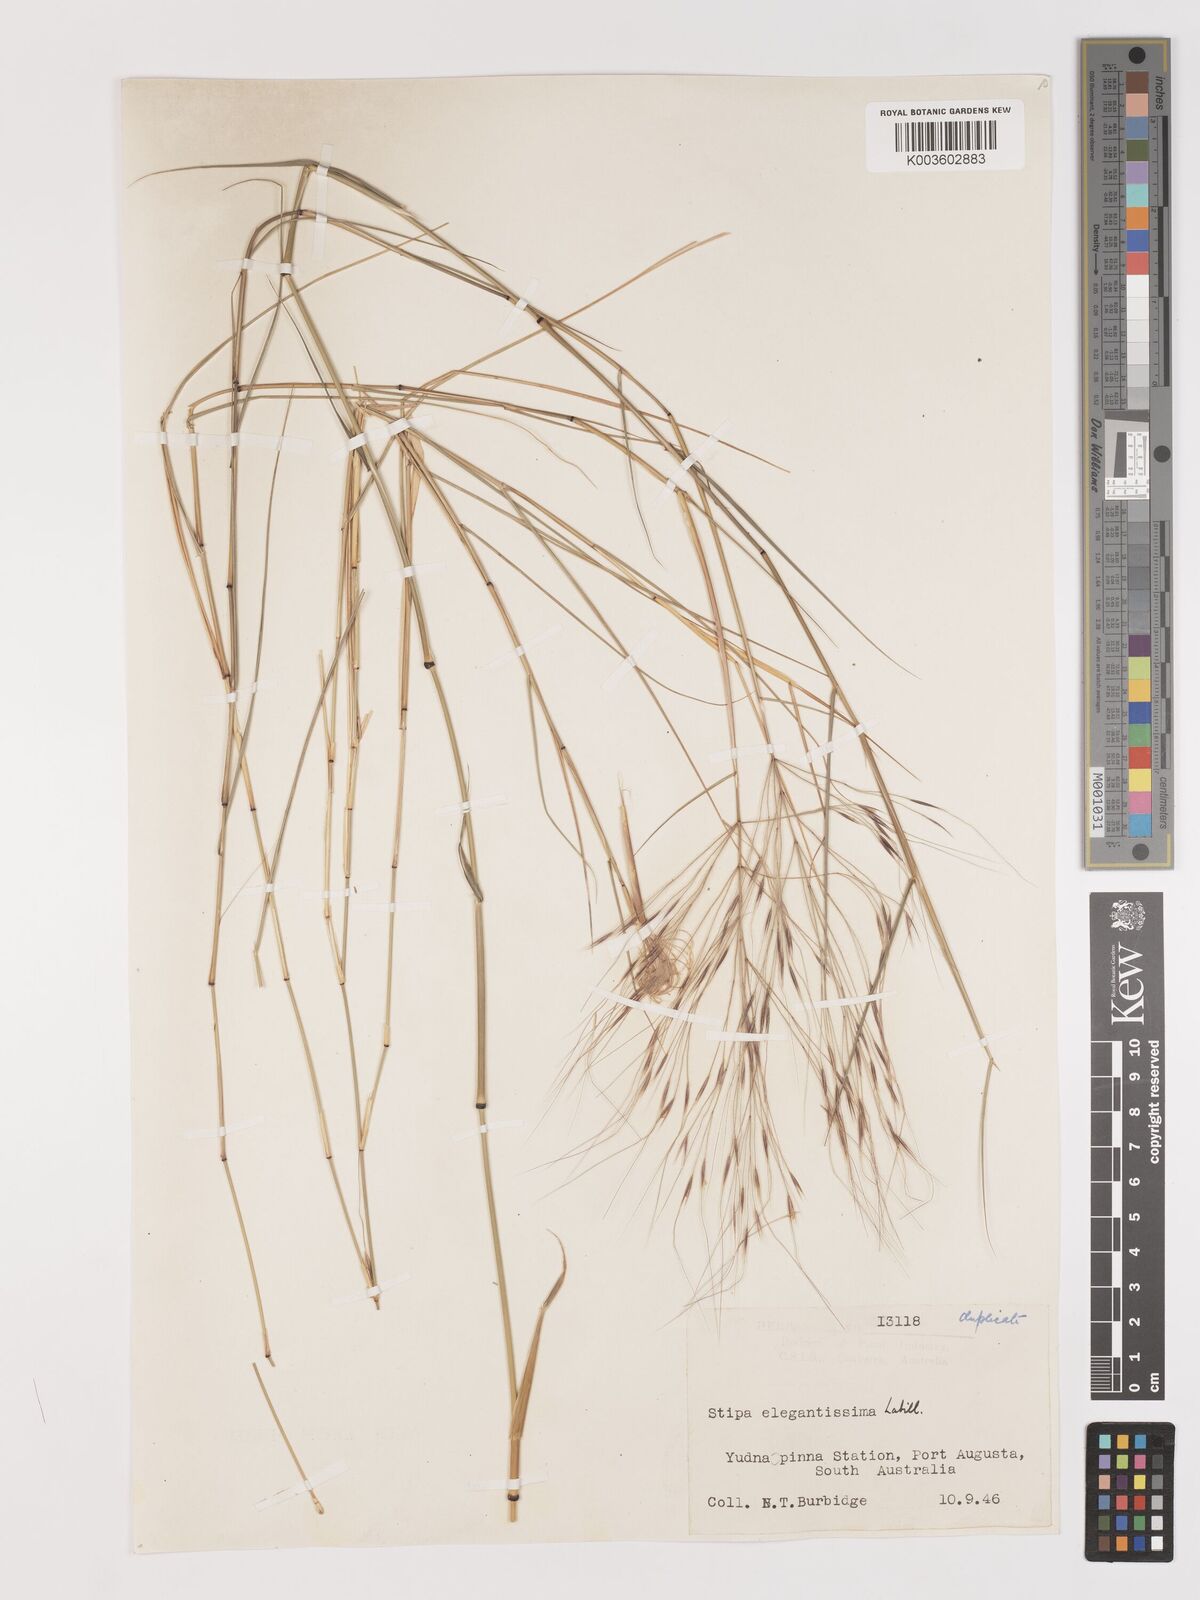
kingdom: Plantae
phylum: Tracheophyta
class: Liliopsida
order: Poales
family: Poaceae
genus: Austrostipa
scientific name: Austrostipa elegantissima
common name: Feather spear grass
